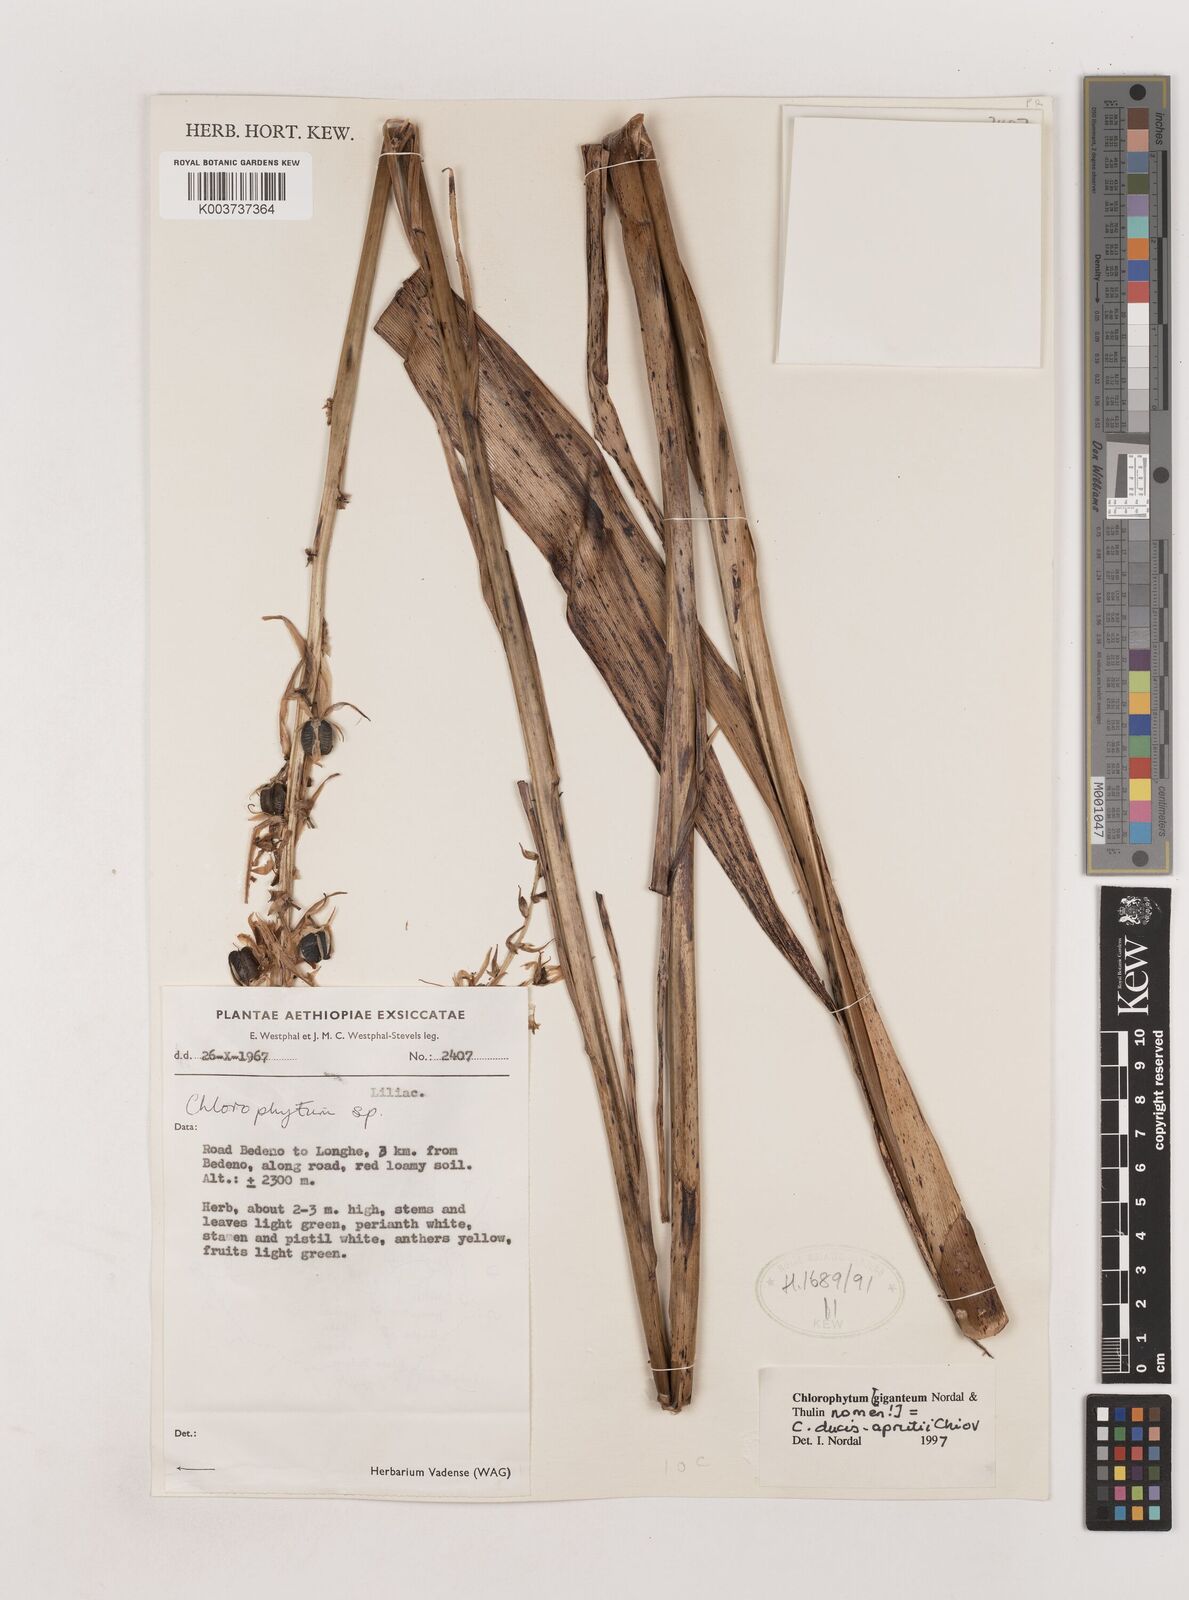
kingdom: Plantae
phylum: Tracheophyta
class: Liliopsida
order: Asparagales
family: Asparagaceae
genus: Chlorophytum
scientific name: Chlorophytum ducis-aprutii
